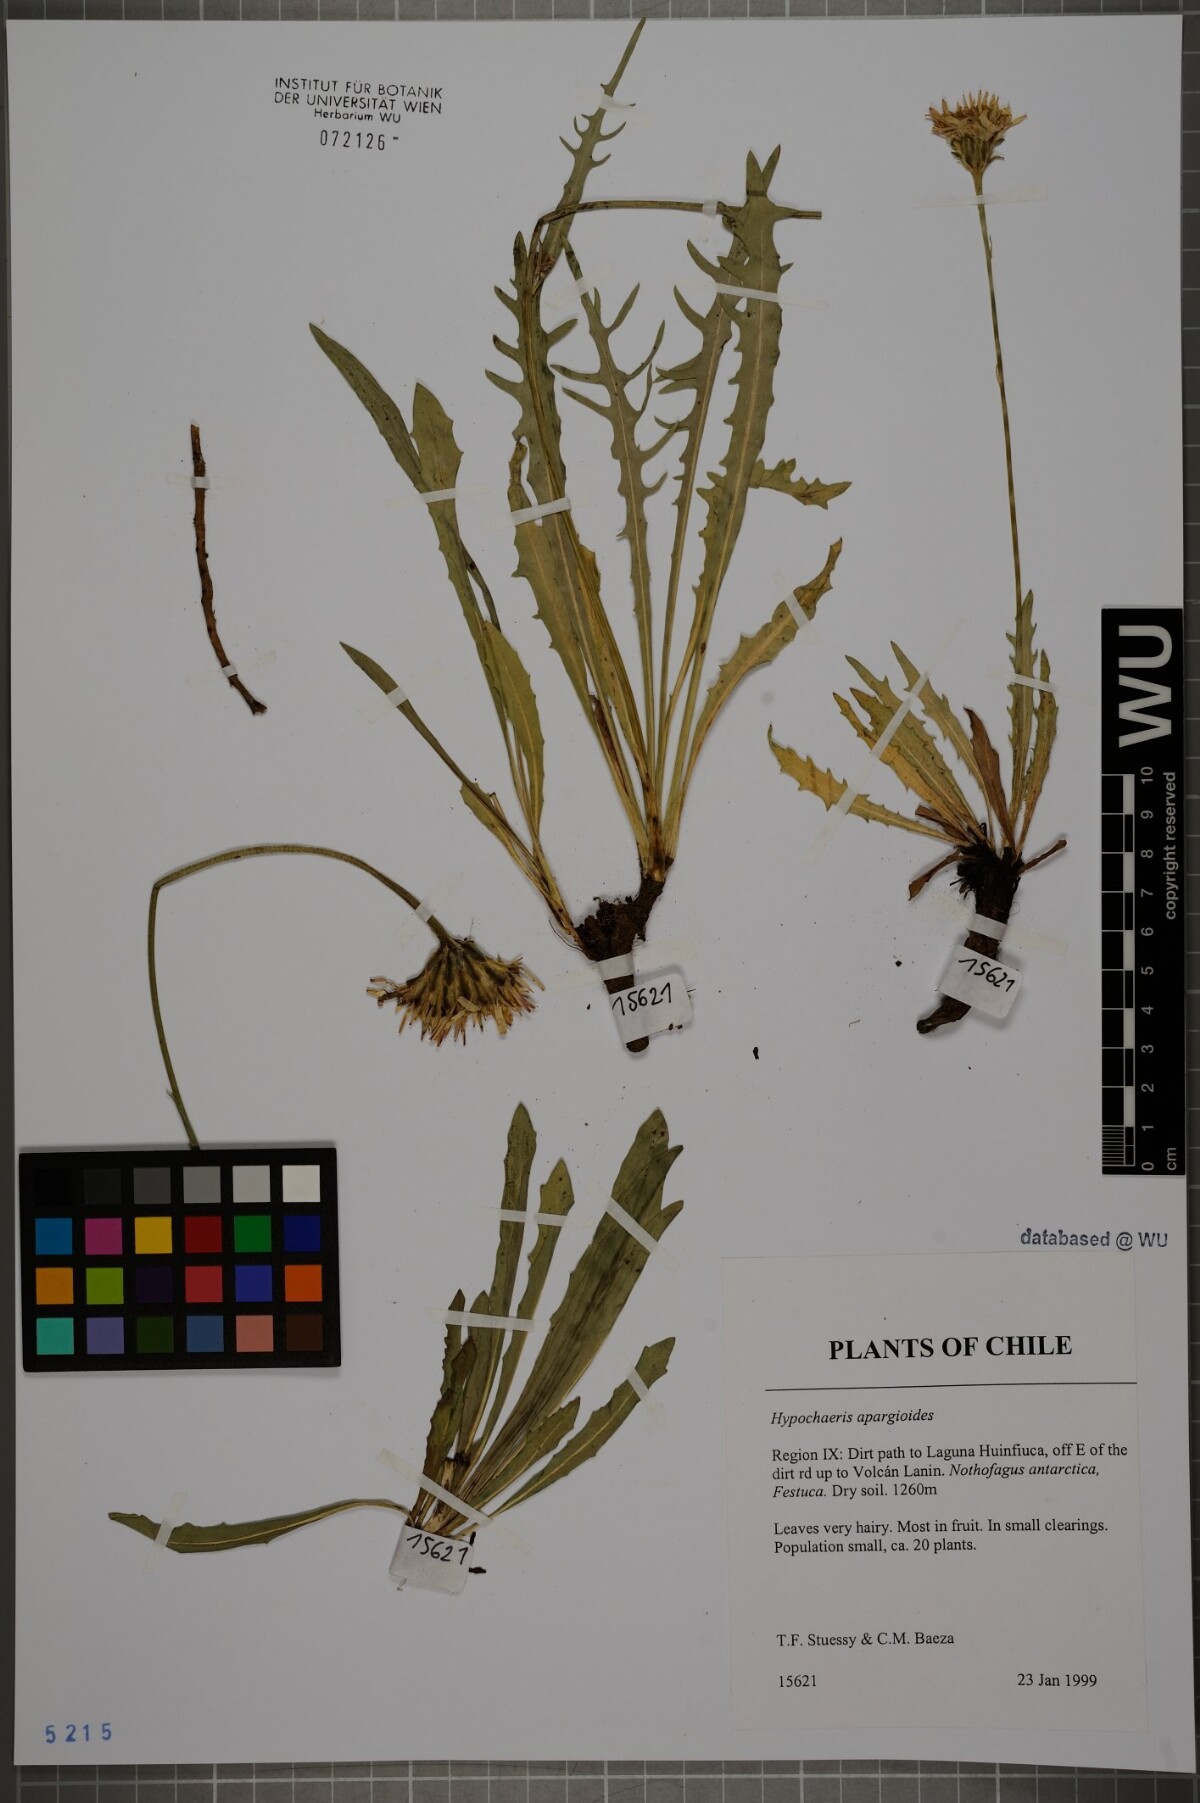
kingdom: Plantae
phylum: Tracheophyta
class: Magnoliopsida
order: Asterales
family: Asteraceae
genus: Hypochaeris
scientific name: Hypochaeris apargioides
